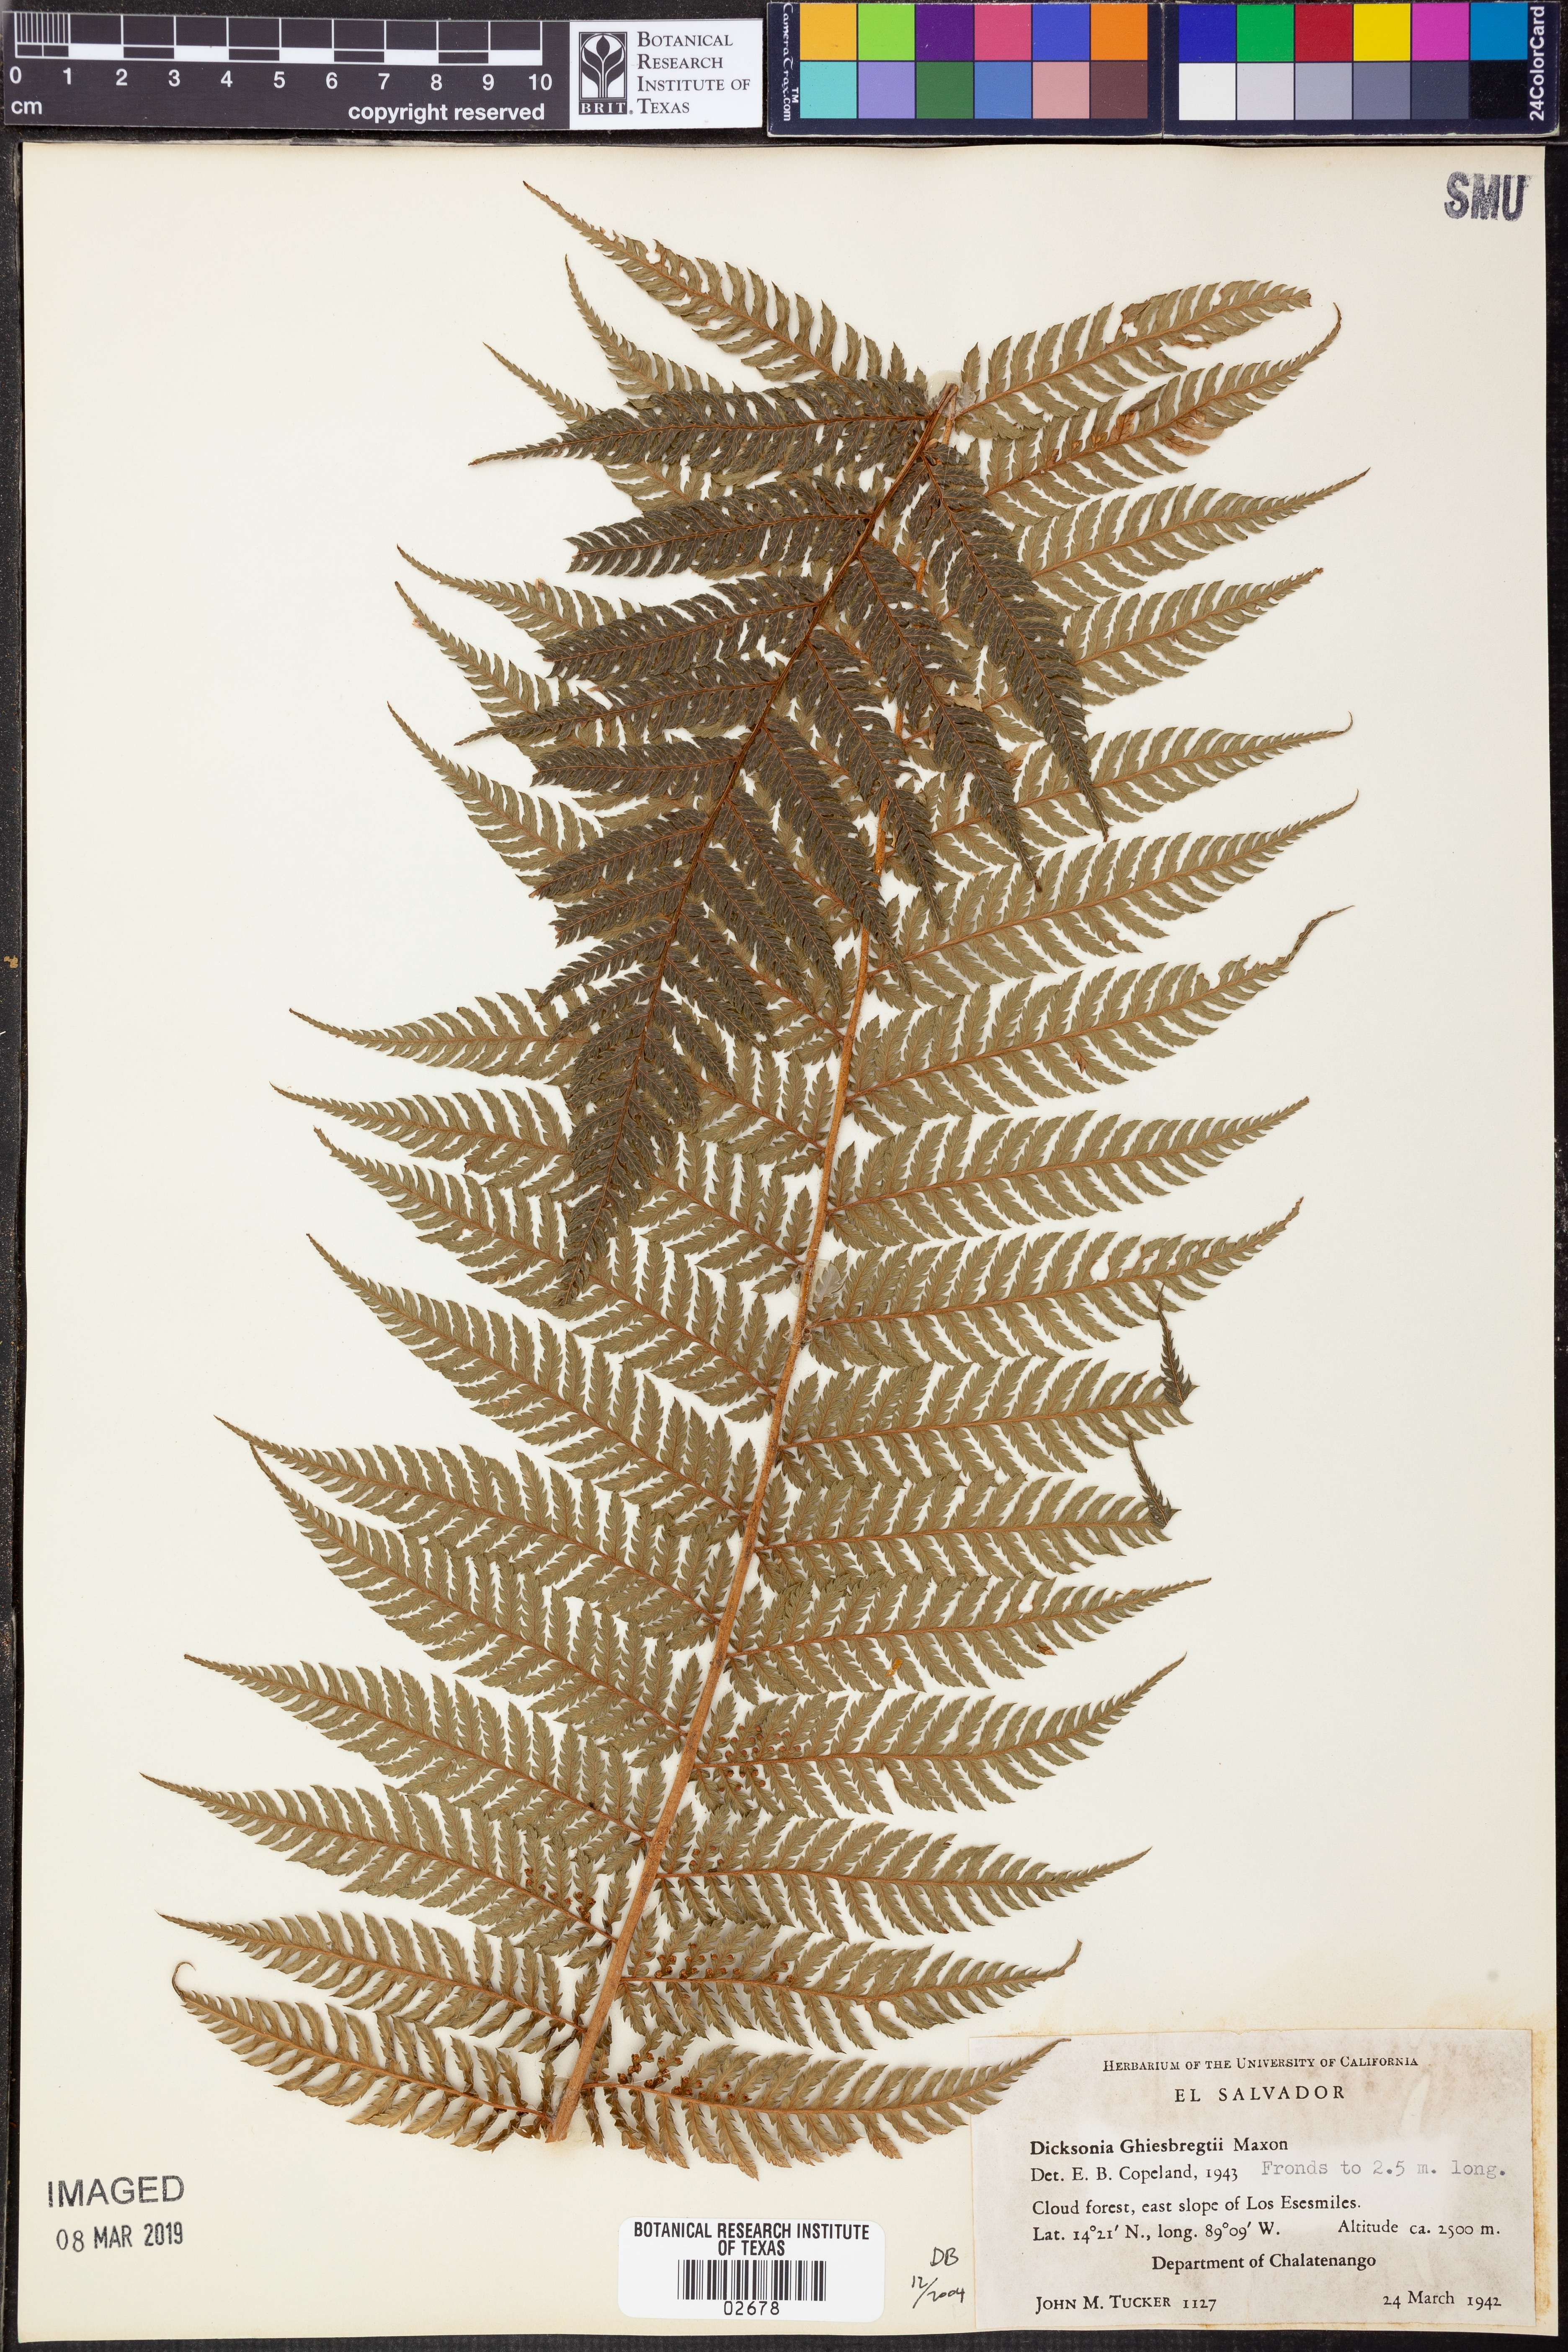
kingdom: Plantae
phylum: Tracheophyta
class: Polypodiopsida
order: Cyatheales
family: Dicksoniaceae
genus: Dicksonia
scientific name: Dicksonia navarrensis
